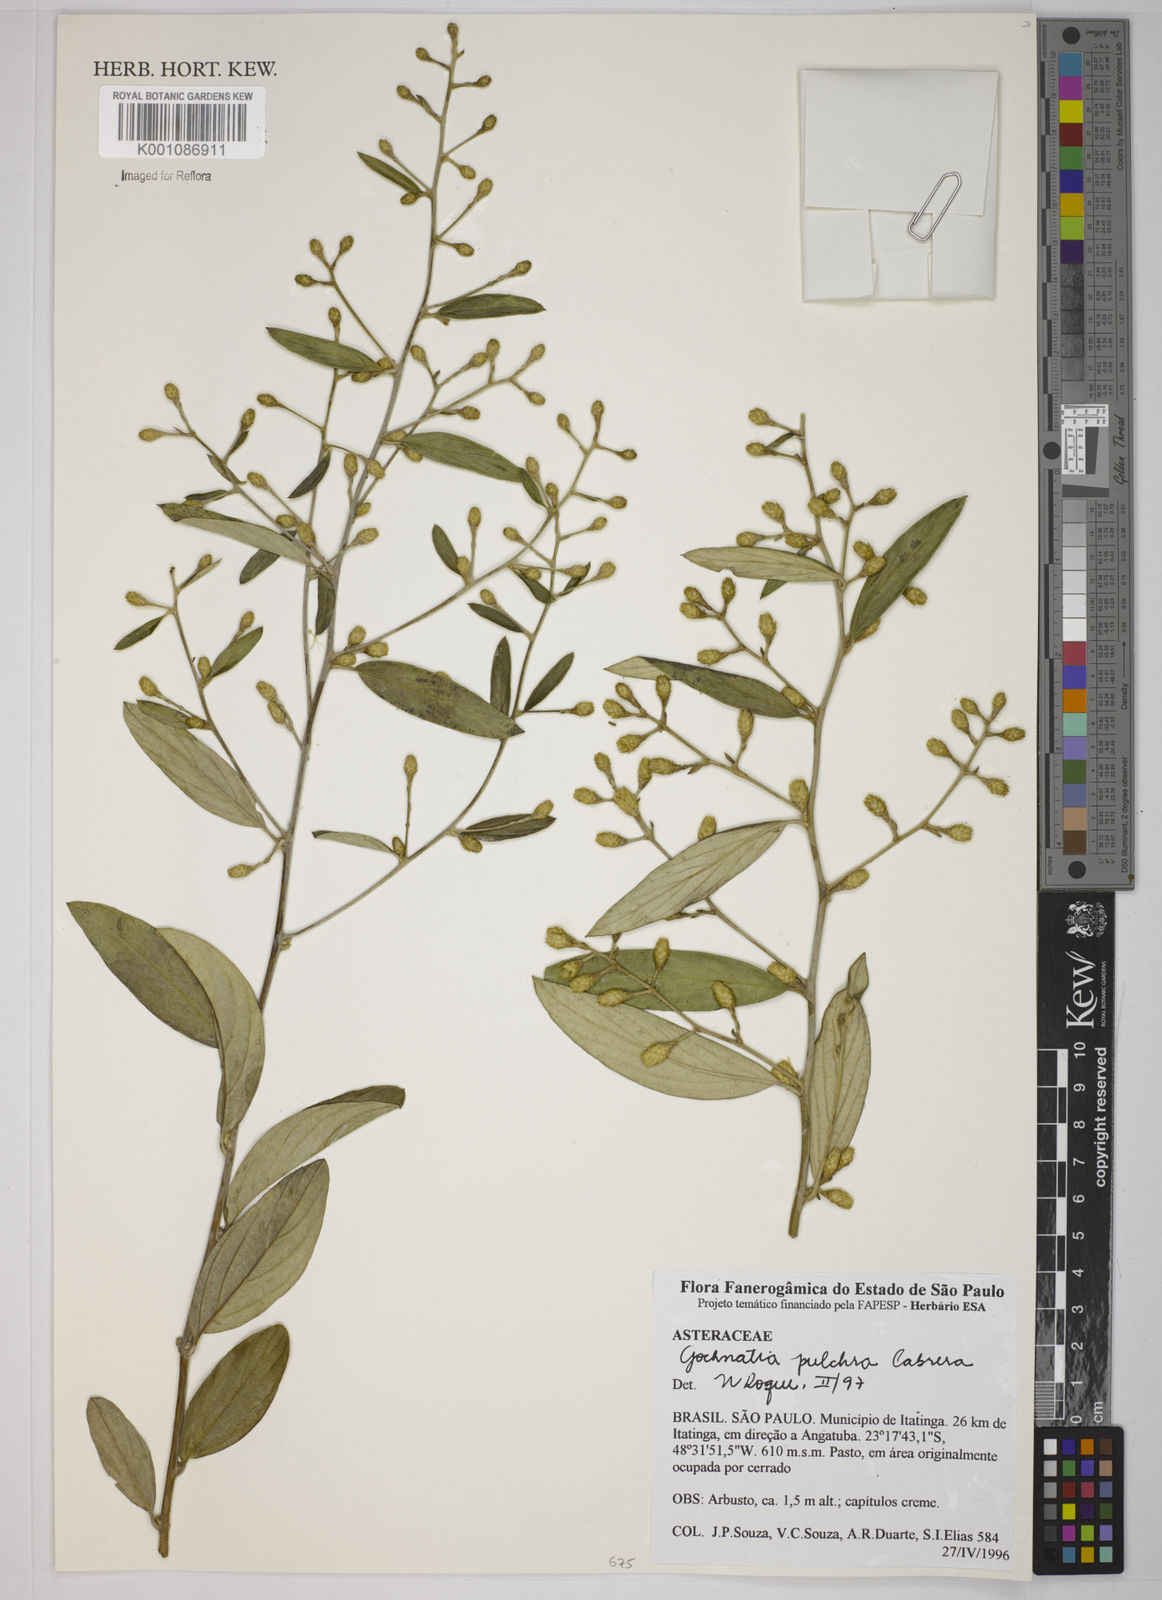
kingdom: Plantae
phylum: Tracheophyta
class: Magnoliopsida
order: Asterales
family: Asteraceae
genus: Moquiniastrum
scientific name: Moquiniastrum pulchrum
